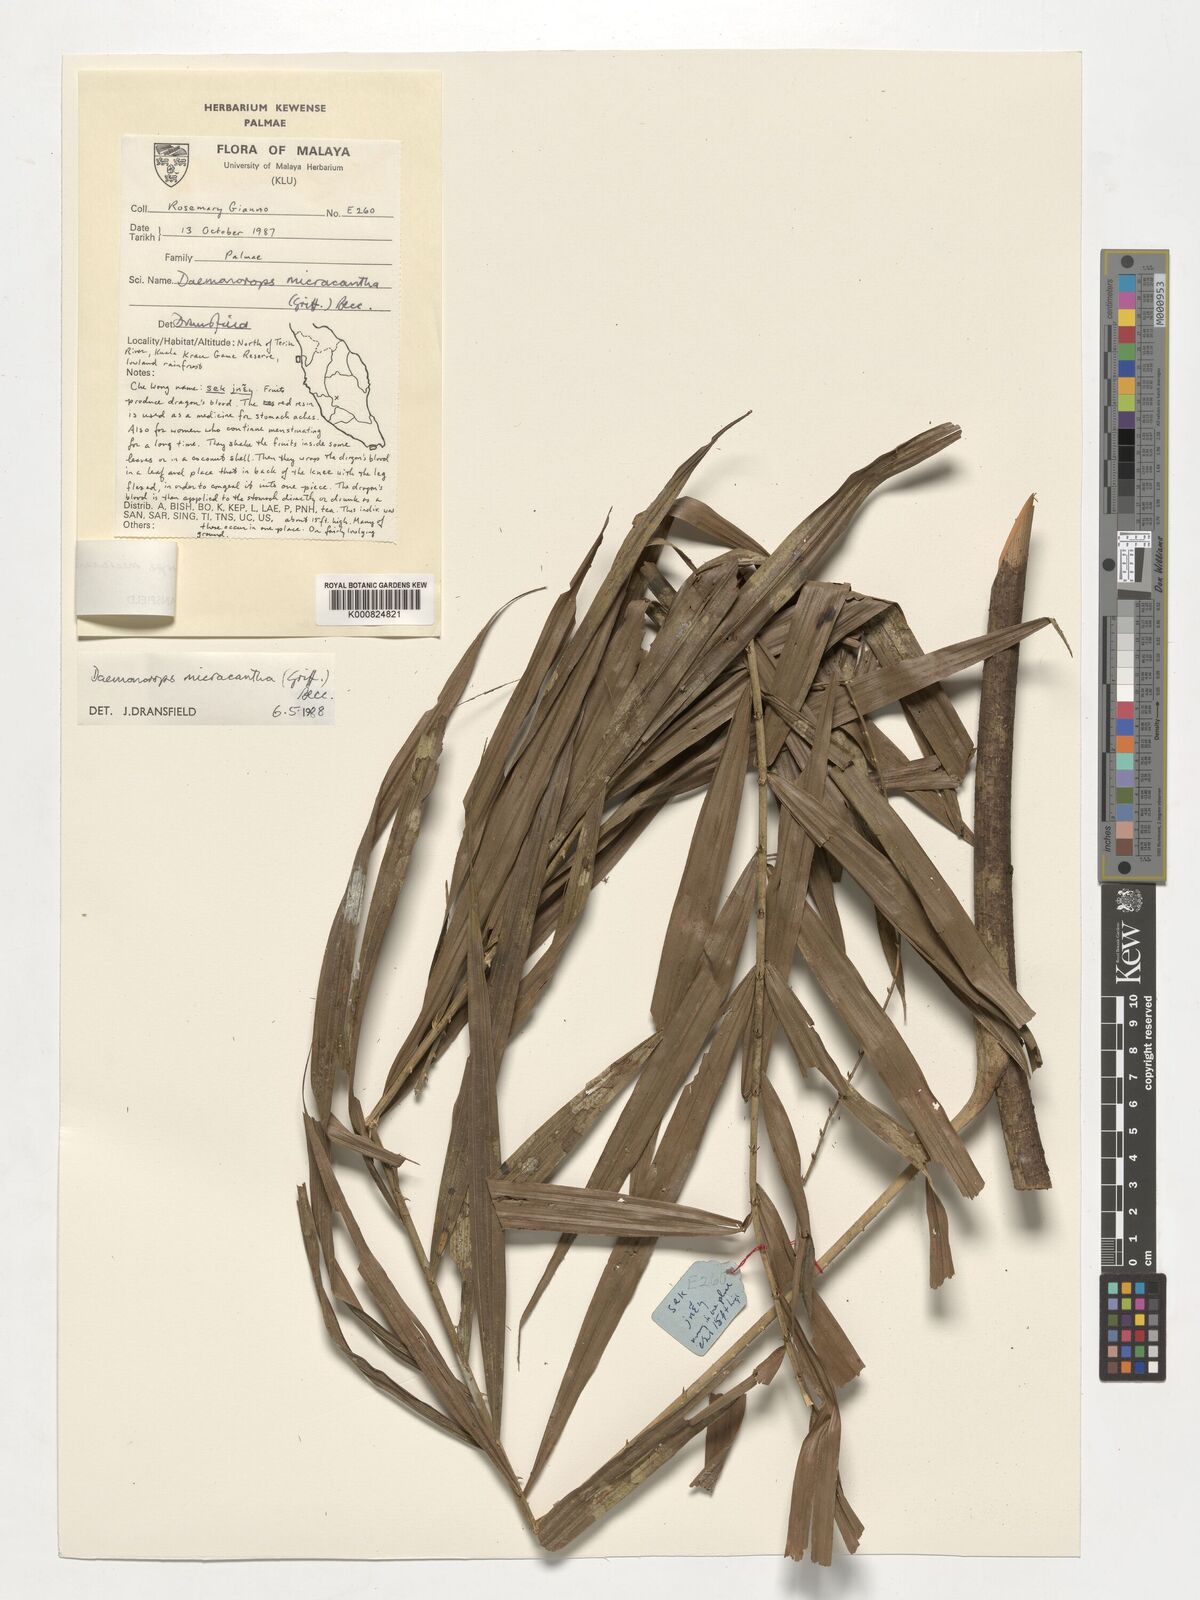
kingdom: Plantae
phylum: Tracheophyta
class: Liliopsida
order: Arecales
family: Arecaceae
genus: Calamus
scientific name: Calamus micracanthus
